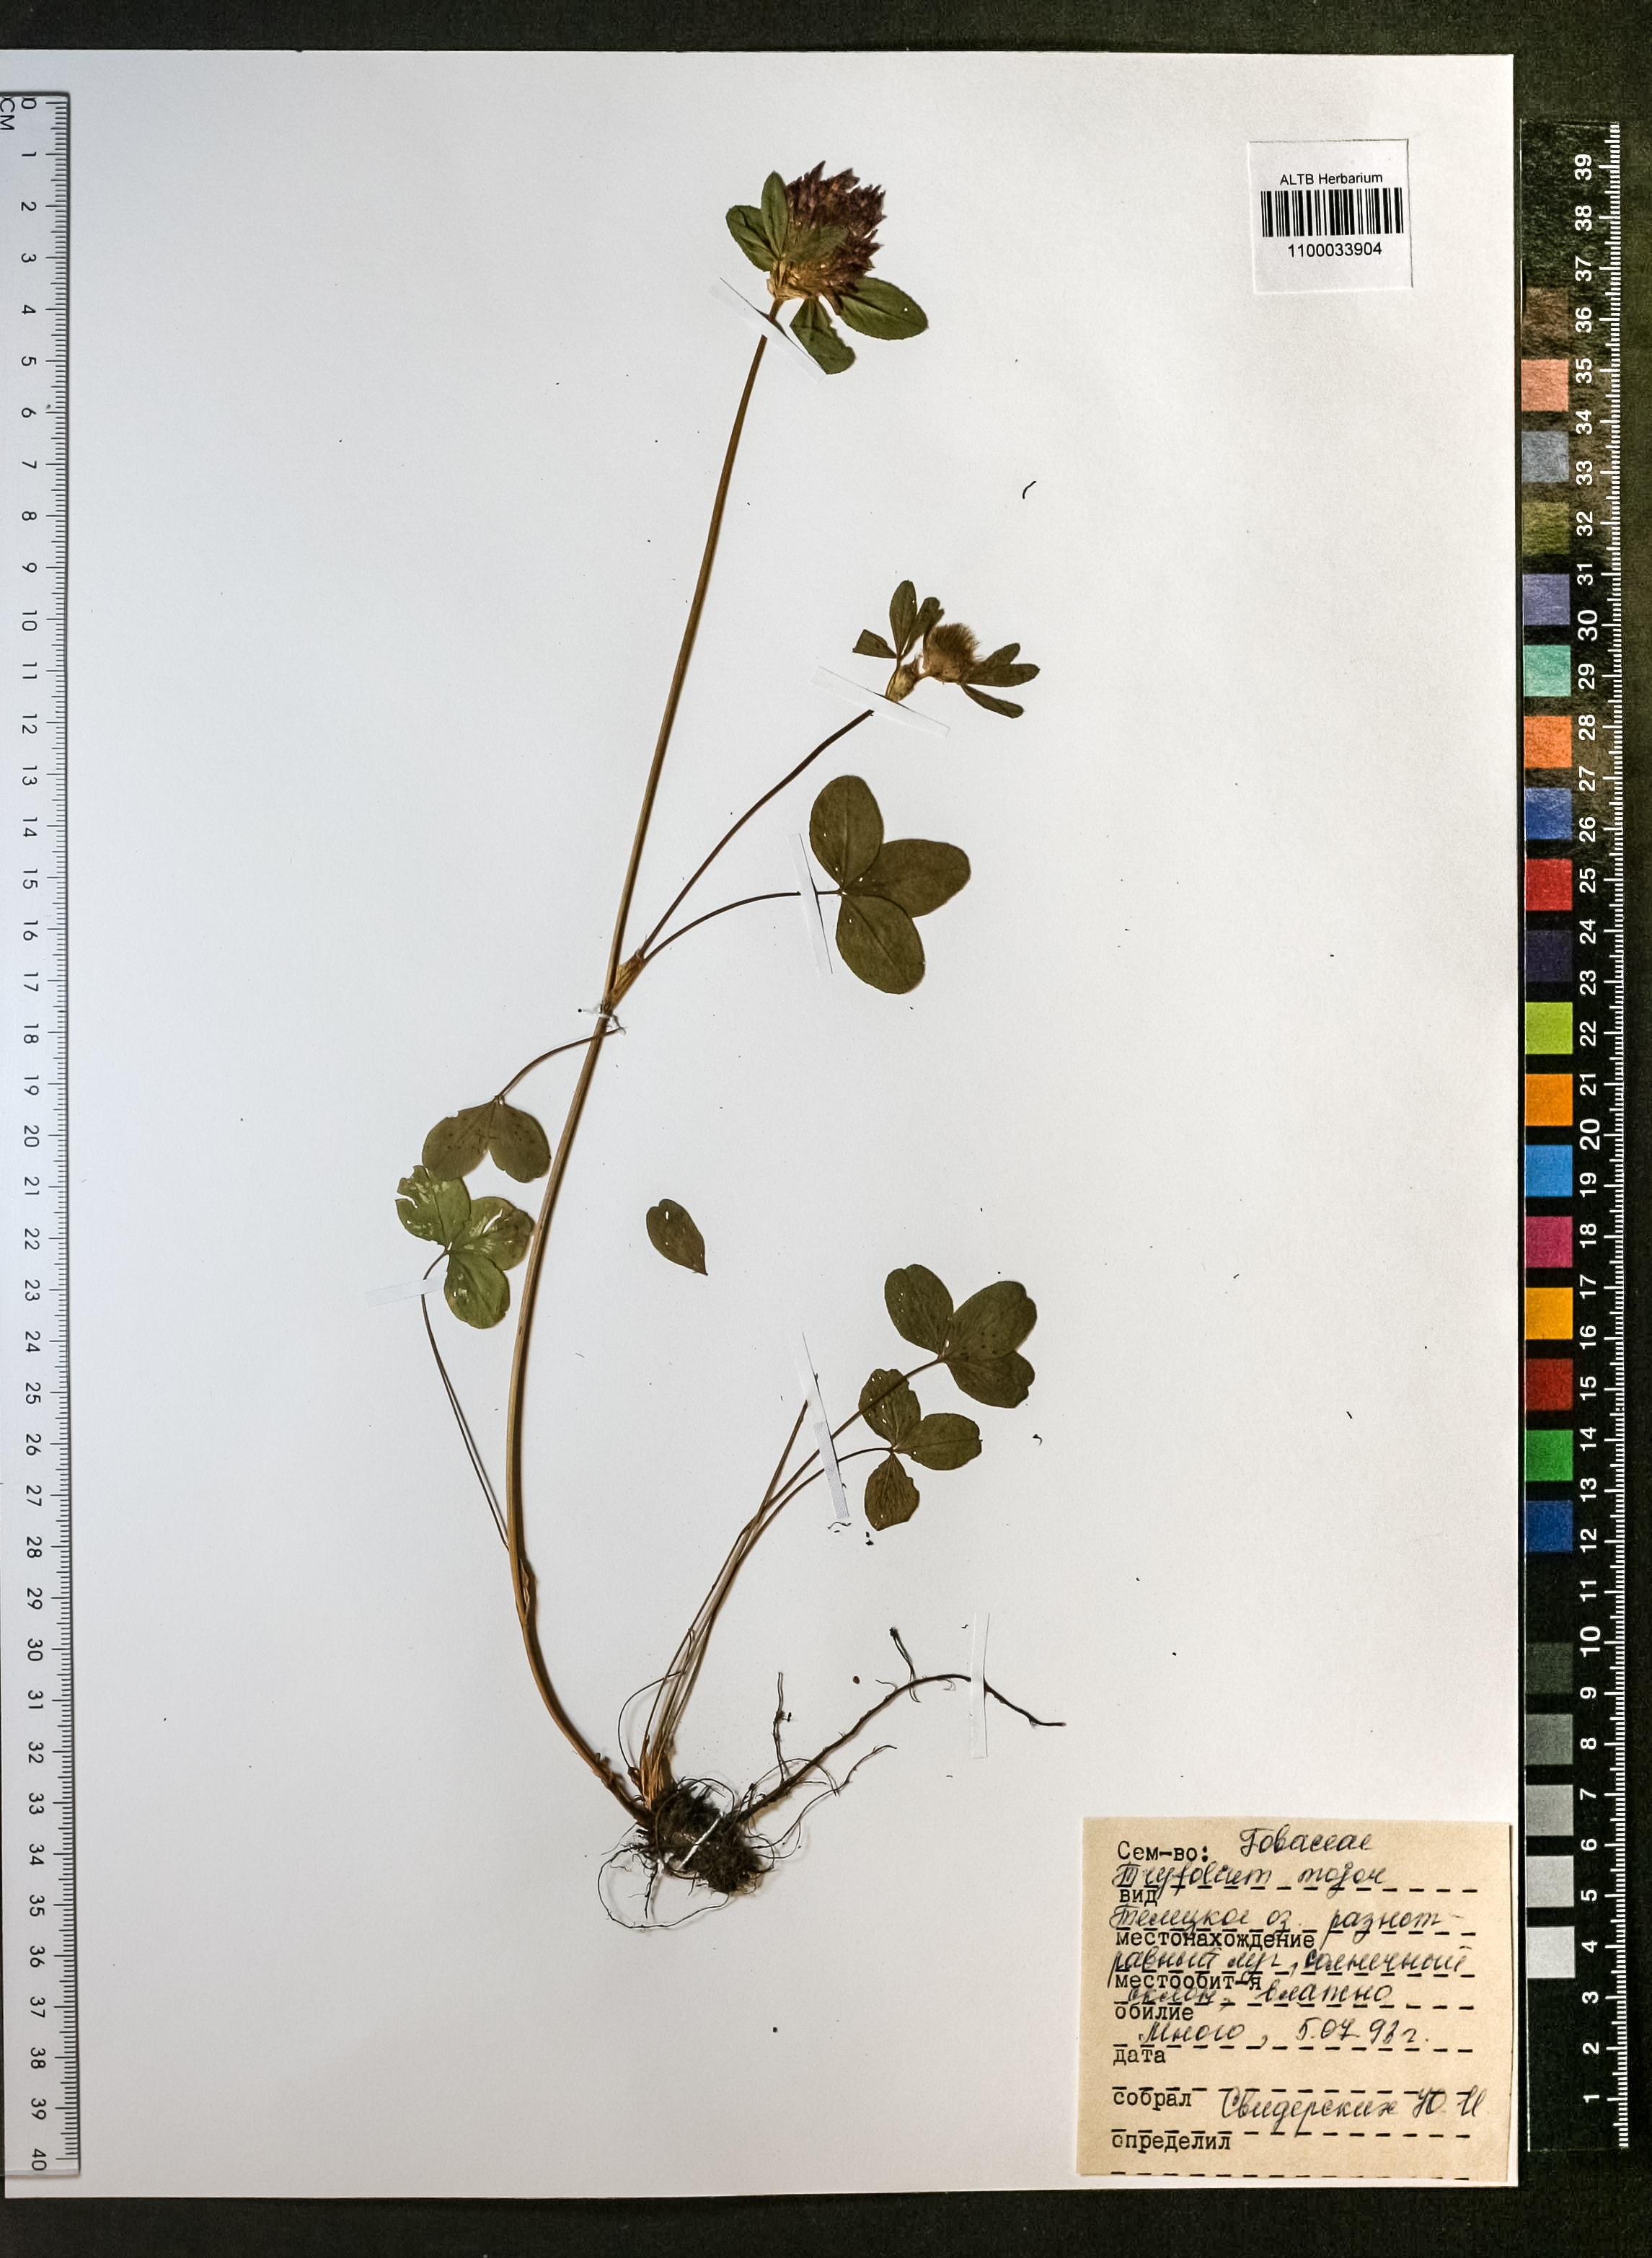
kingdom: Plantae
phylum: Tracheophyta
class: Magnoliopsida
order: Fabales
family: Fabaceae
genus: Trifolium
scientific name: Trifolium appendiculatum
